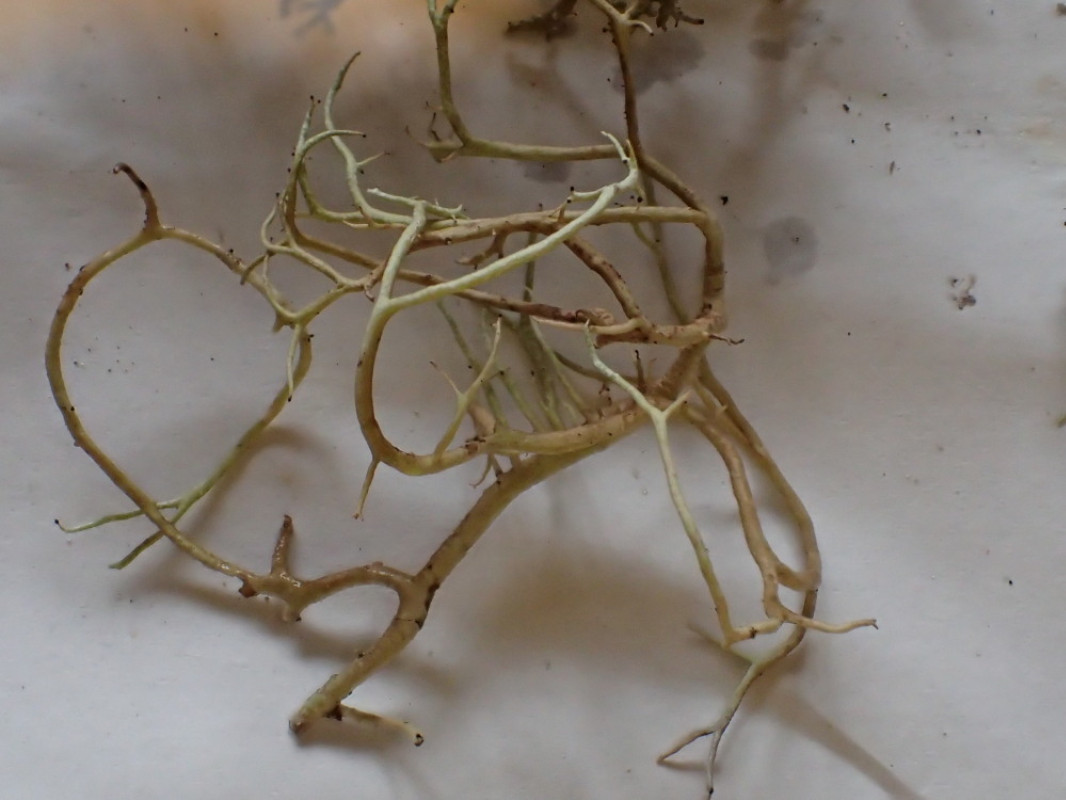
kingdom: Fungi
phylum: Ascomycota
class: Lecanoromycetes
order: Lecanorales
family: Cladoniaceae
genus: Cladonia
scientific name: Cladonia furcata
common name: kløftet bægerlav
